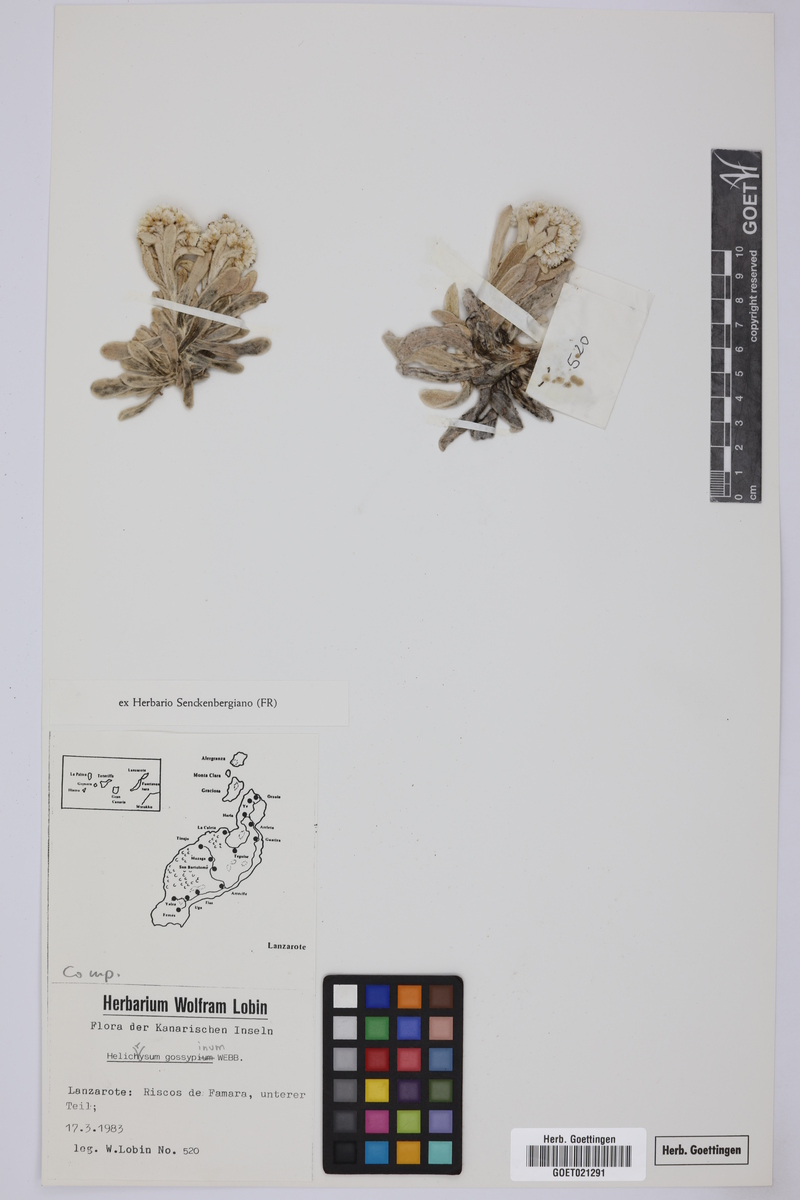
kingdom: Plantae
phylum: Tracheophyta
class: Magnoliopsida
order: Asterales
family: Asteraceae
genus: Helichrysum
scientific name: Helichrysum gossypinum
